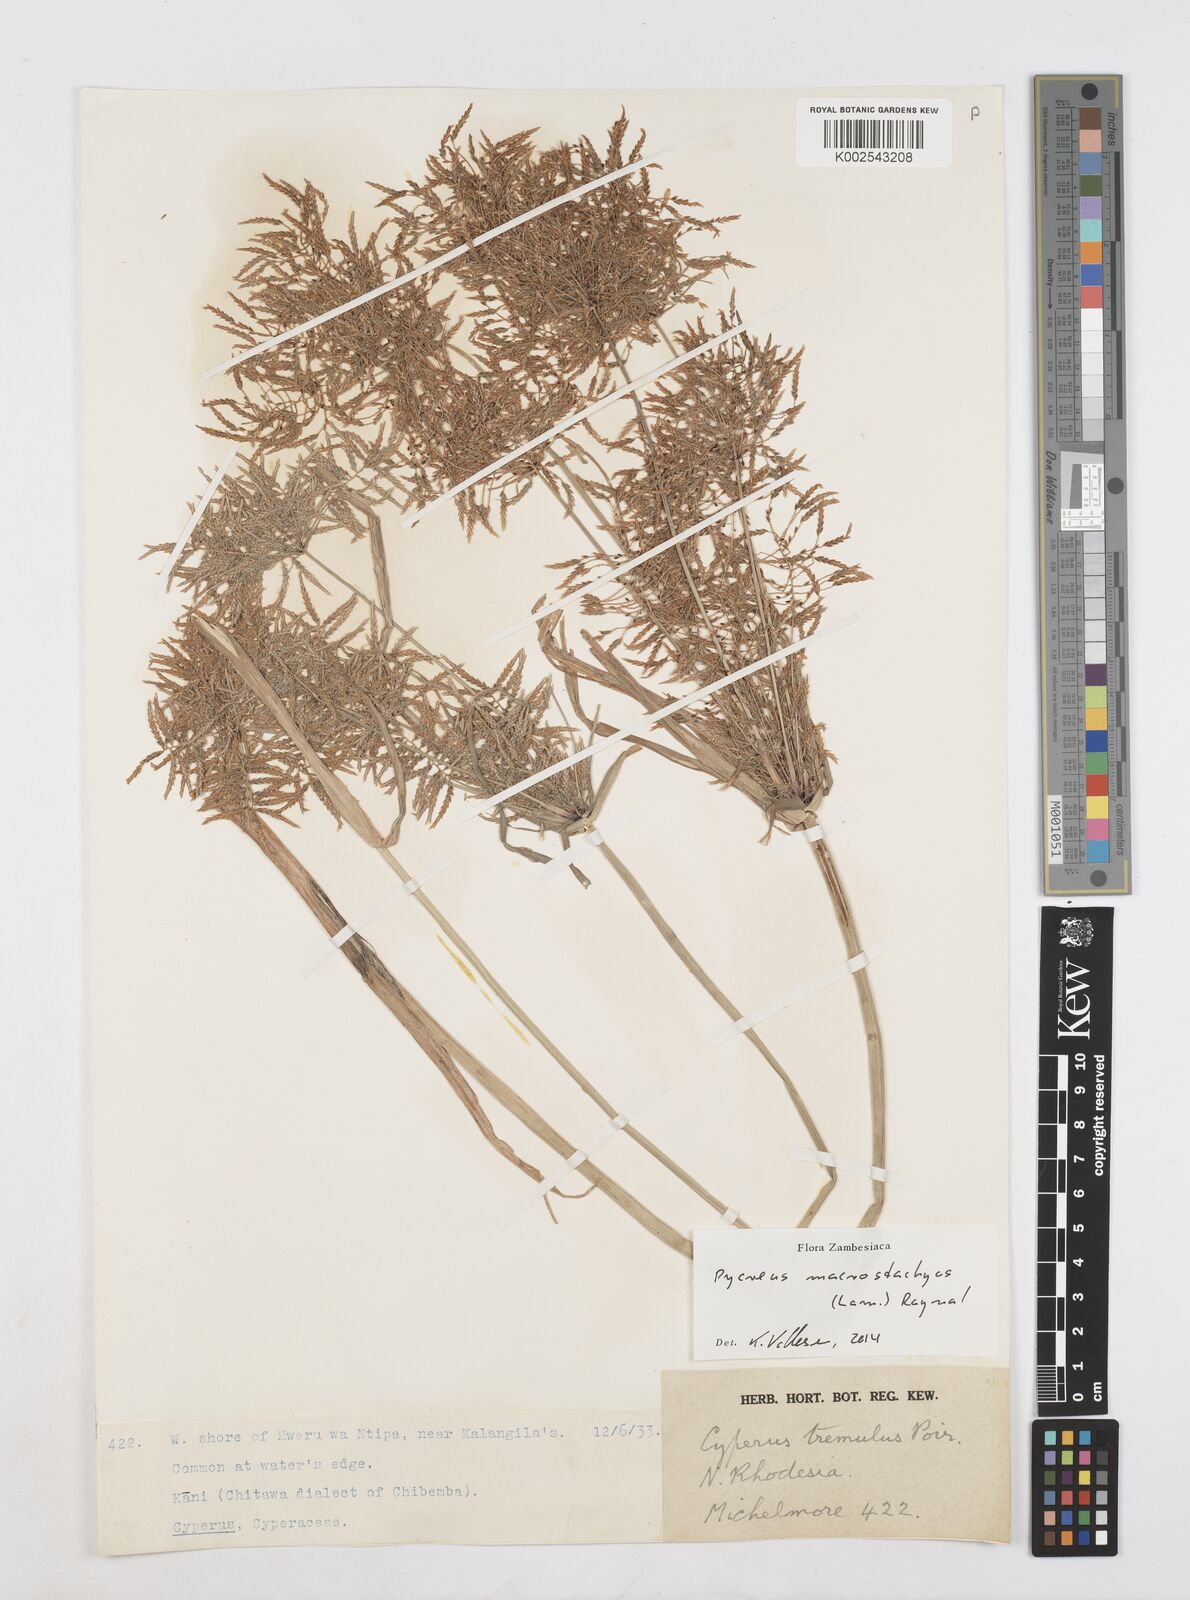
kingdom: Plantae
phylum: Tracheophyta
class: Liliopsida
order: Poales
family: Cyperaceae
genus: Cyperus
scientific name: Cyperus macrostachyos
